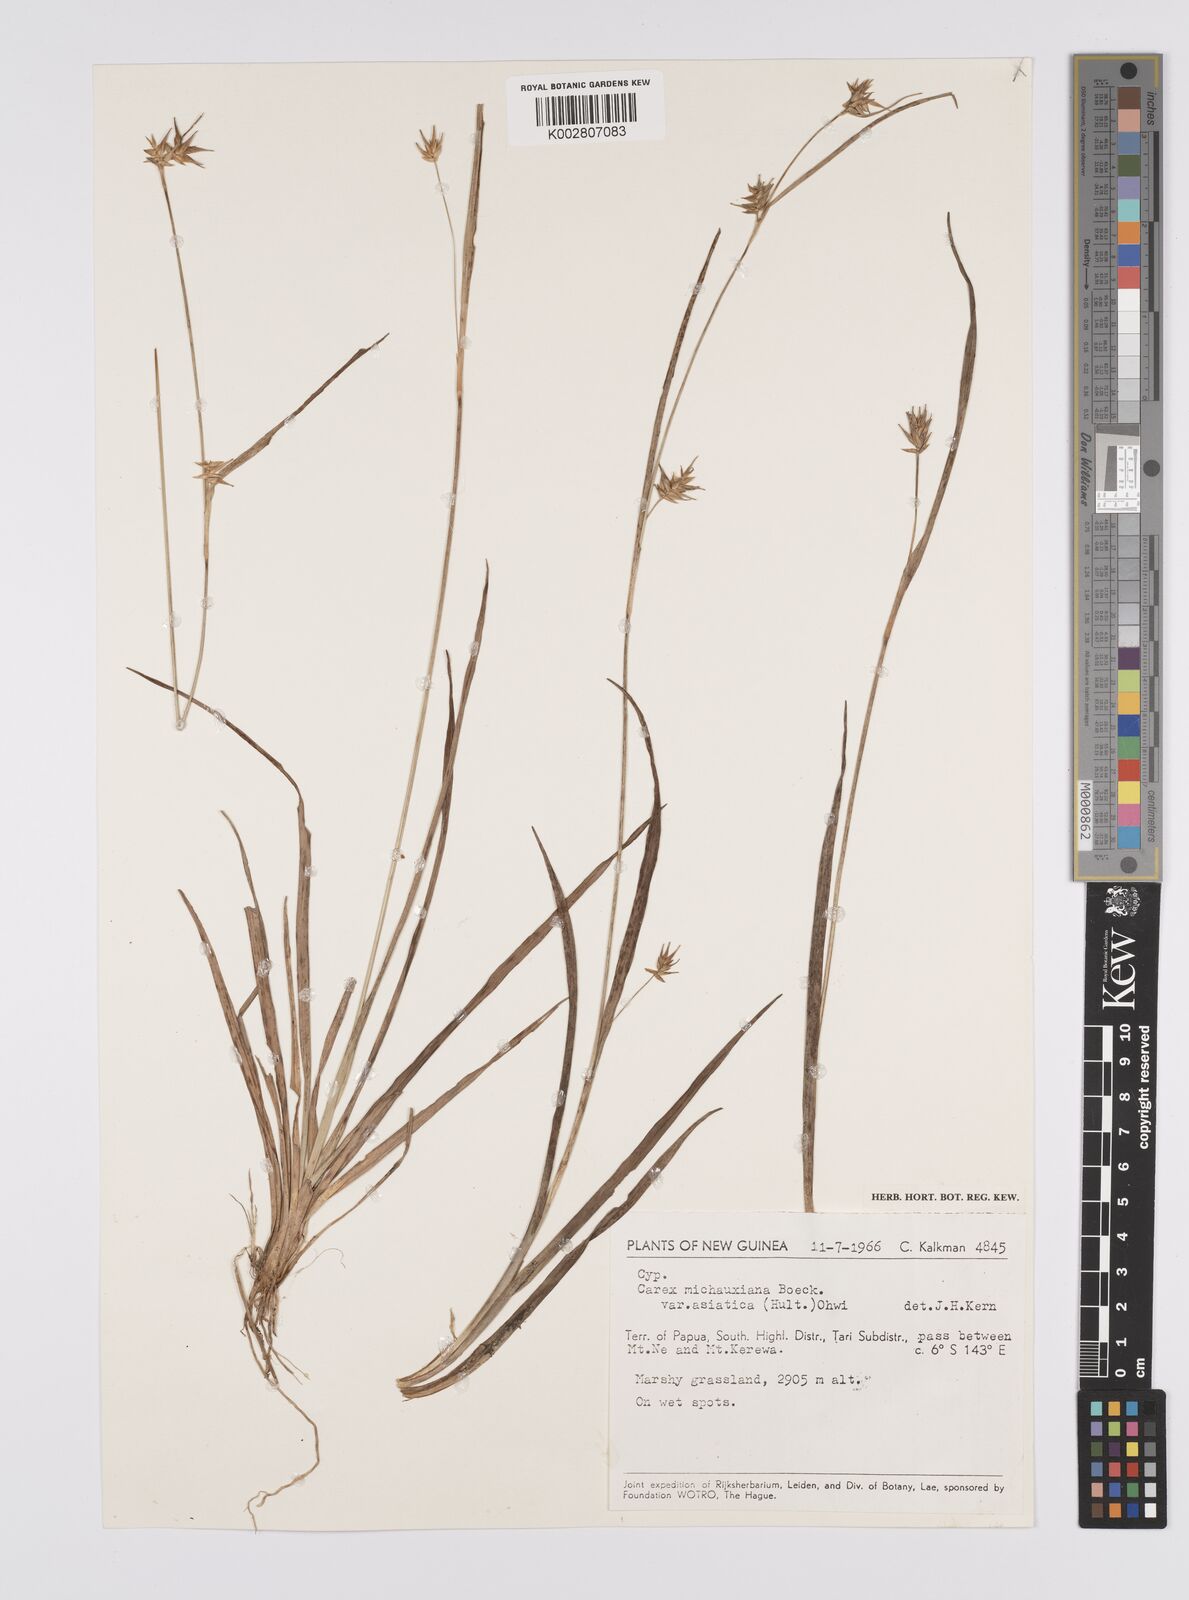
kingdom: Plantae
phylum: Tracheophyta
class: Liliopsida
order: Poales
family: Cyperaceae
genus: Carex
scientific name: Carex michauxiana
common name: Michaux's sedge
